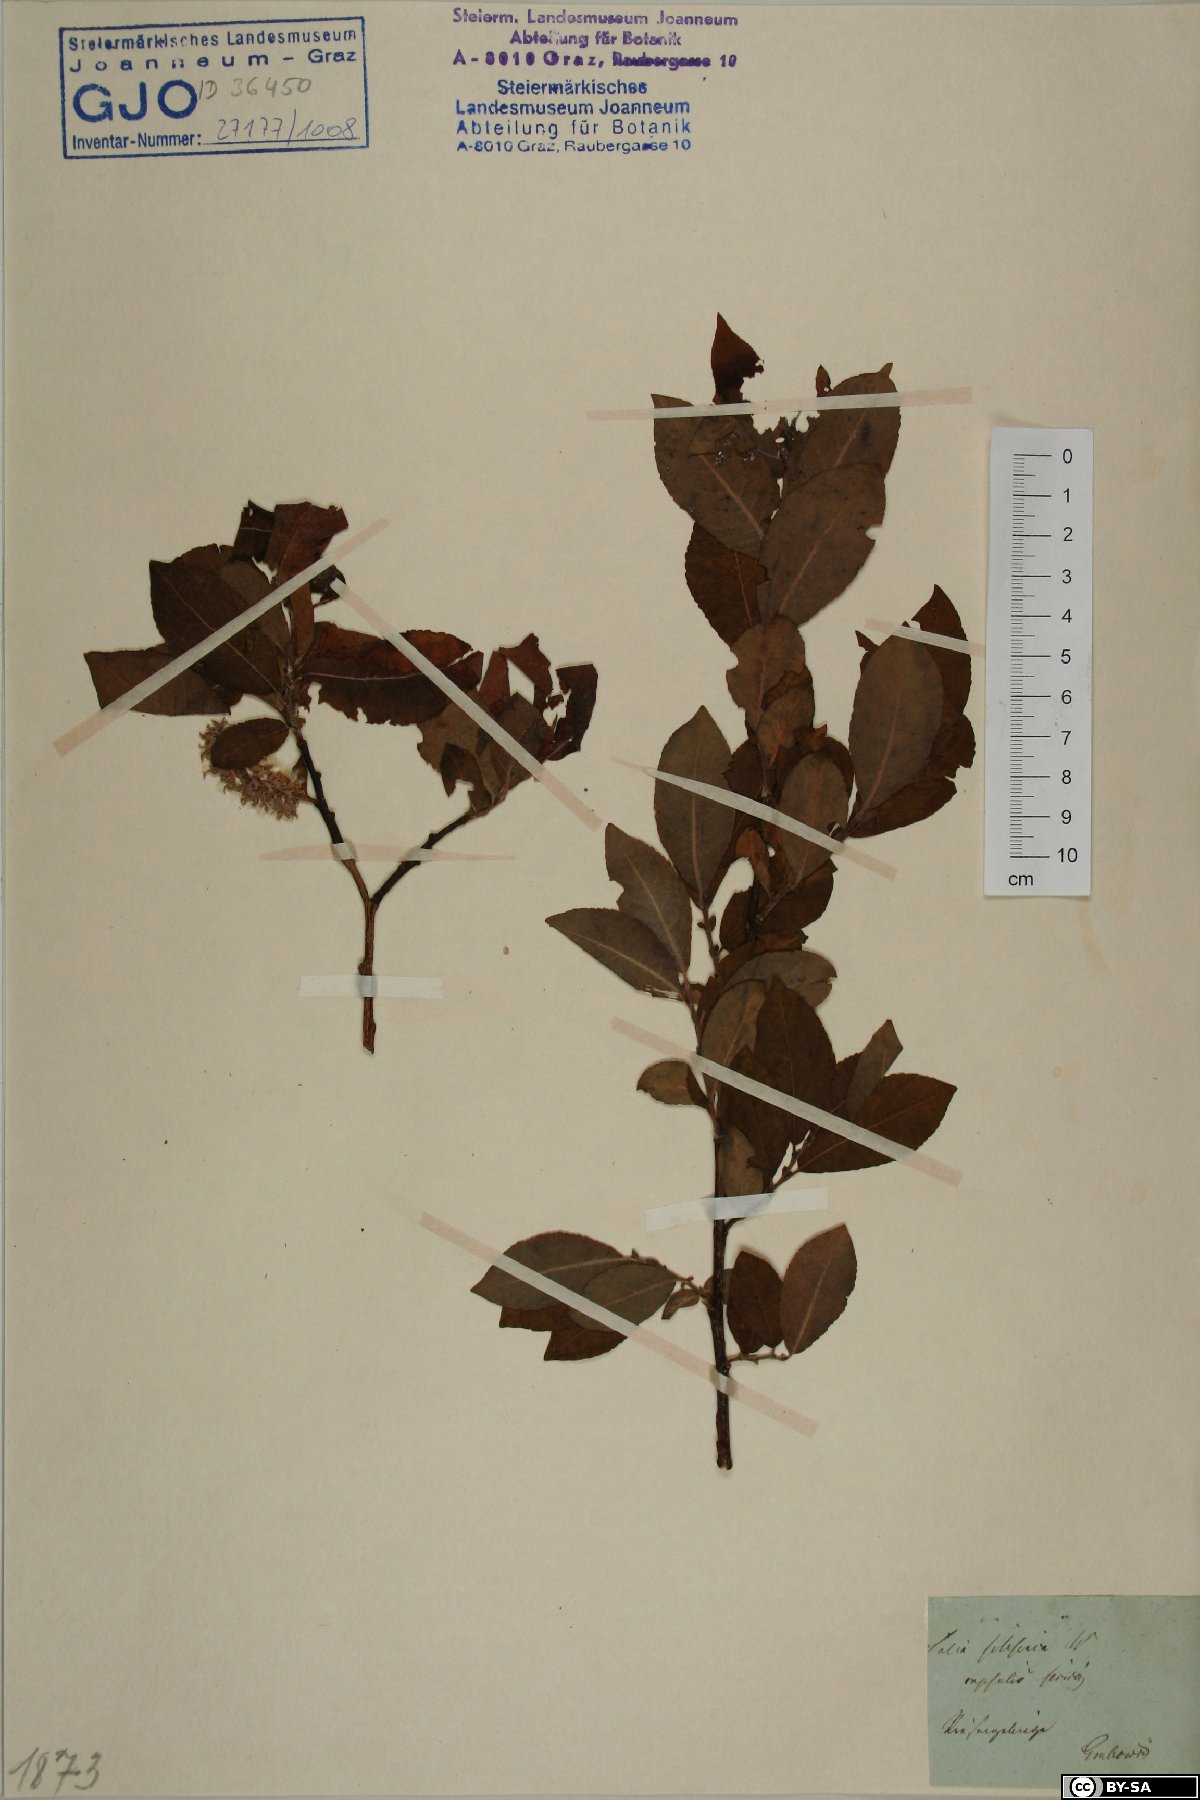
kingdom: Plantae
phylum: Tracheophyta
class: Magnoliopsida
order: Malpighiales
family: Salicaceae
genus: Salix
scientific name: Salix silesiaca
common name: Silesian willow
